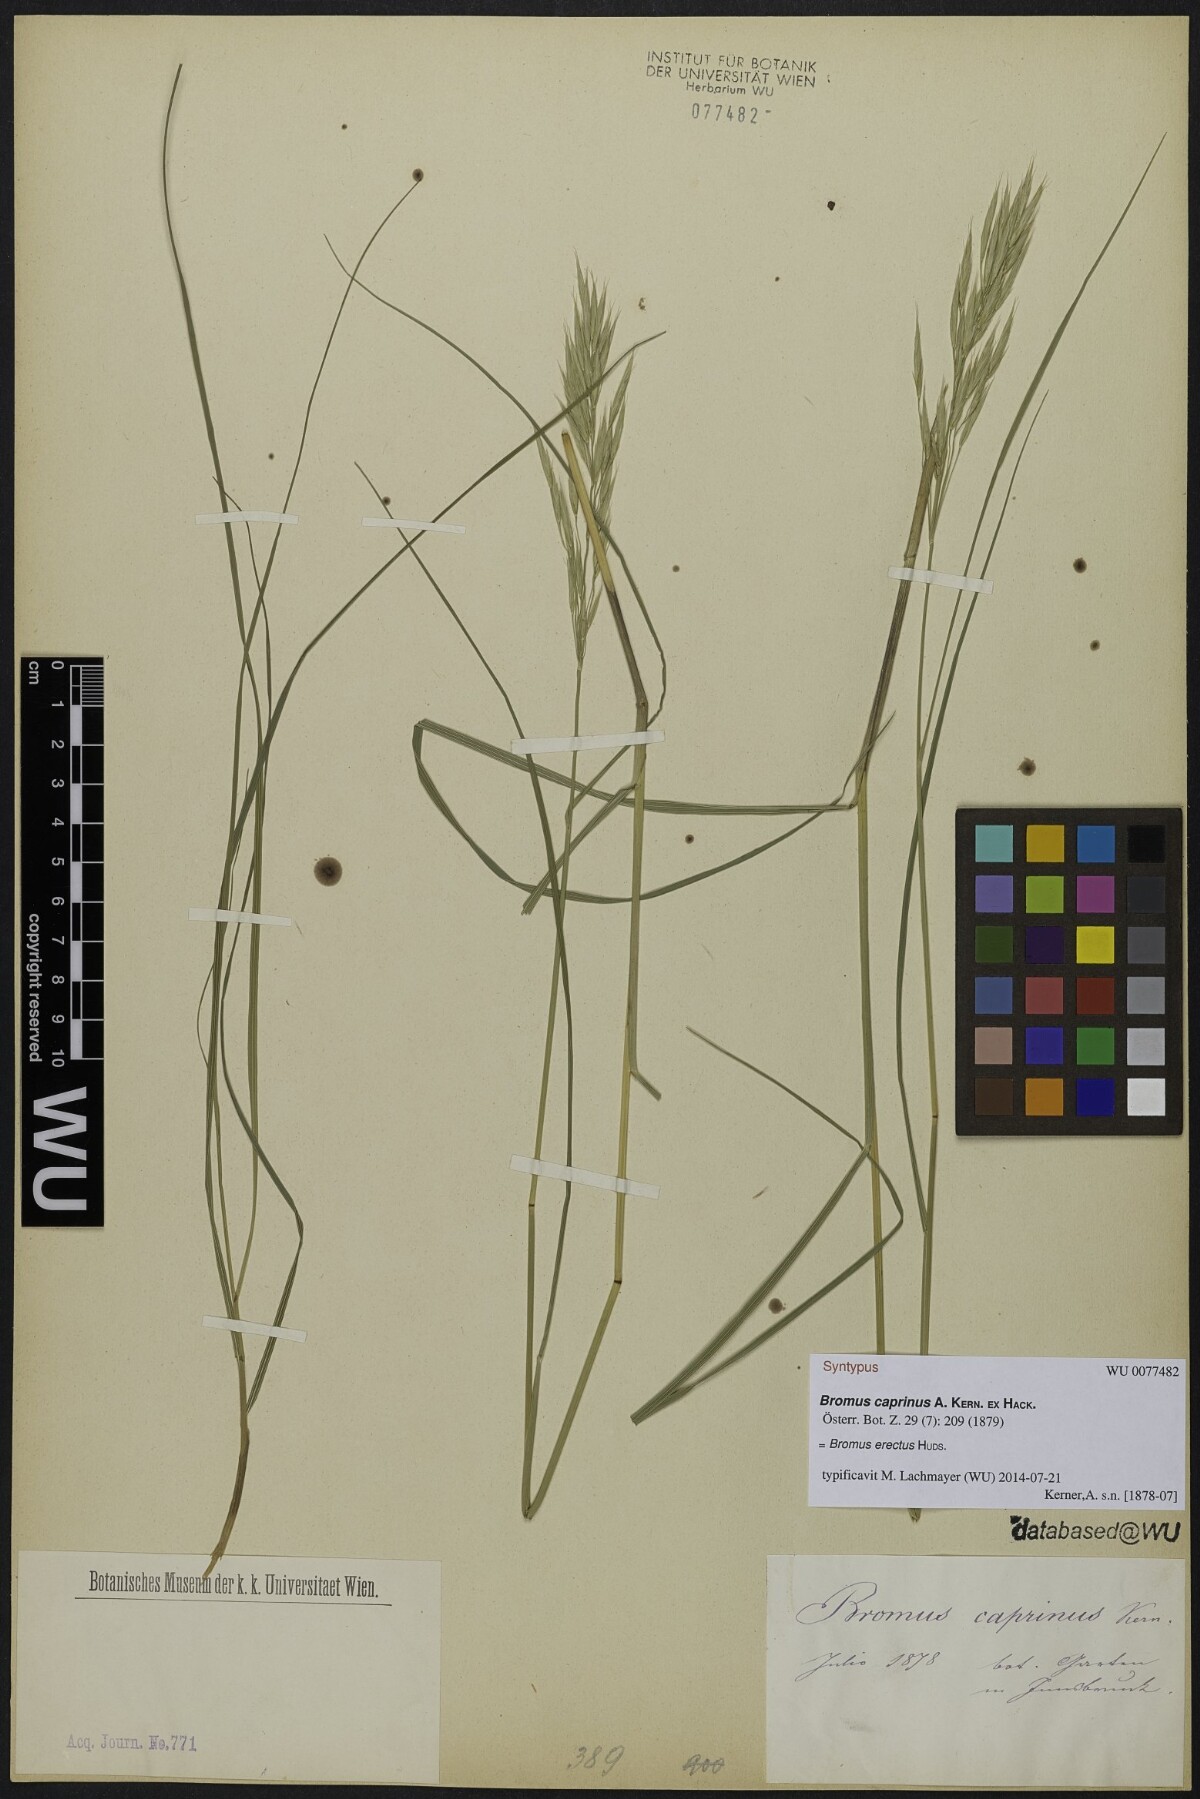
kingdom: Plantae
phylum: Tracheophyta
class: Liliopsida
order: Poales
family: Poaceae
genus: Bromus
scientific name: Bromus erectus
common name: Erect brome
